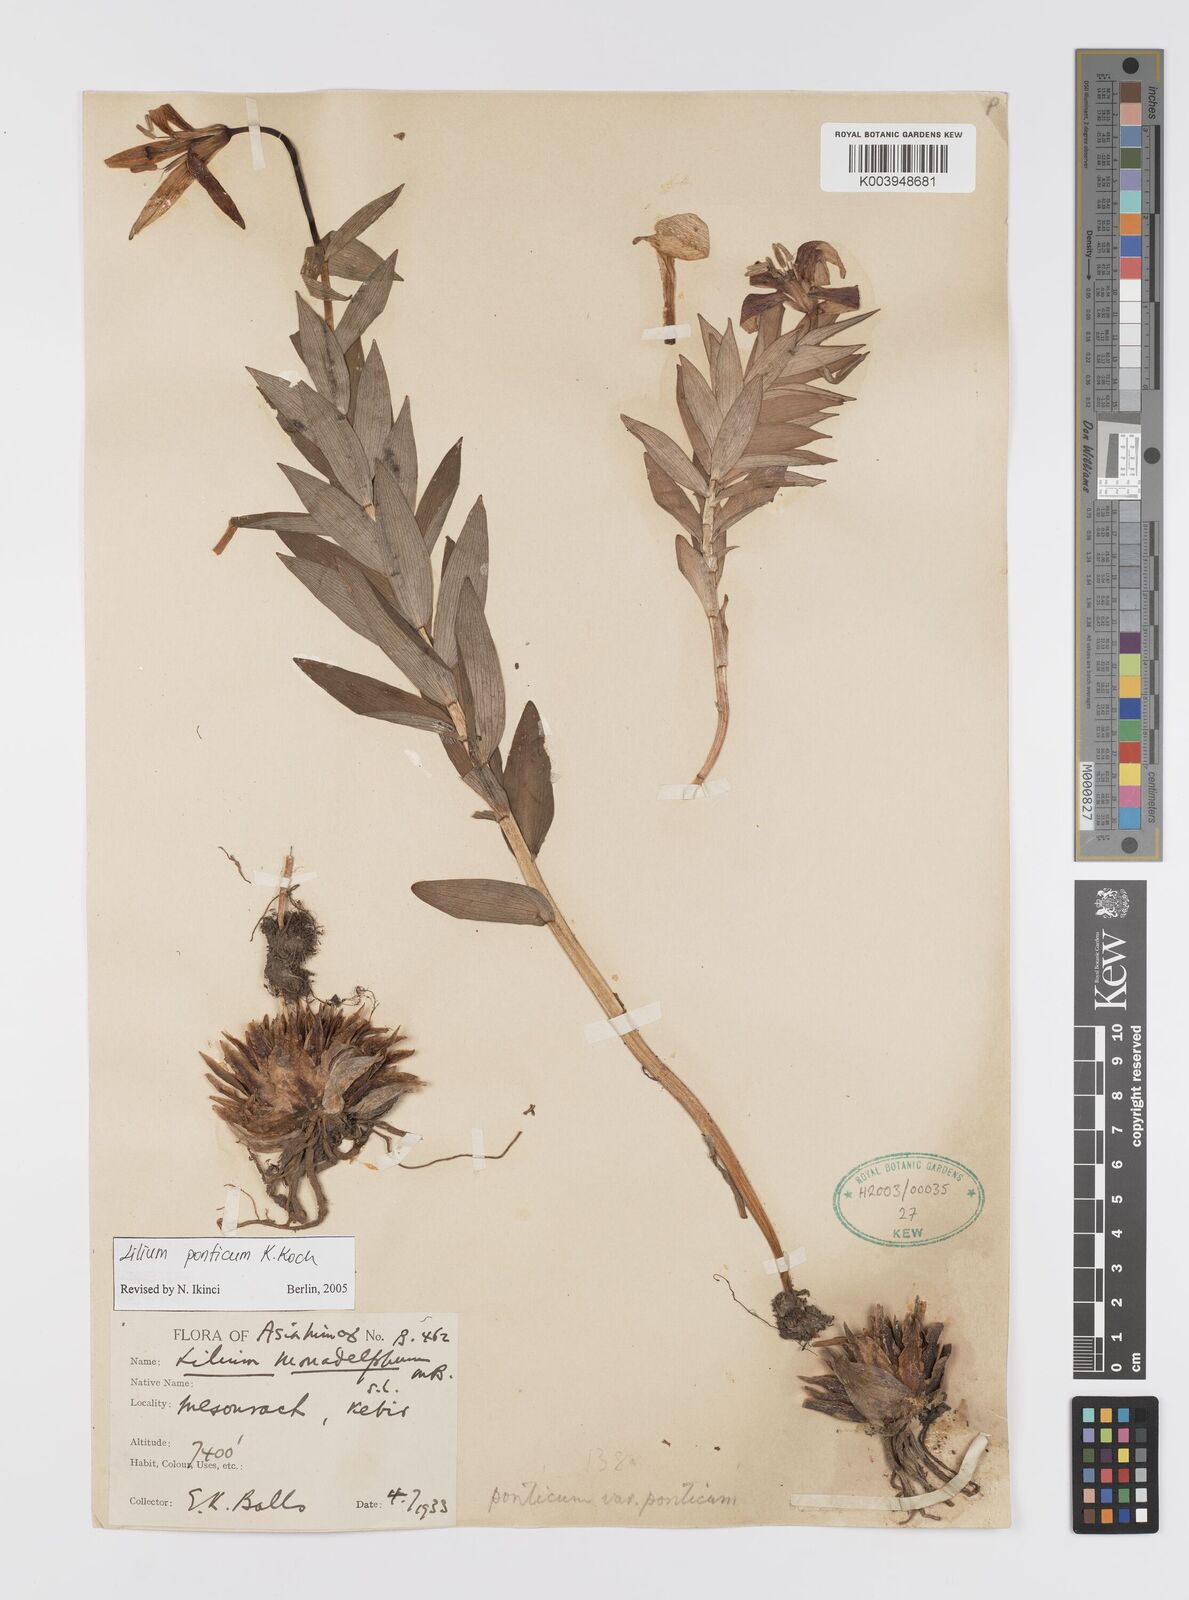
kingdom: Plantae
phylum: Tracheophyta
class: Liliopsida
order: Liliales
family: Liliaceae
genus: Lilium
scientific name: Lilium ponticum
